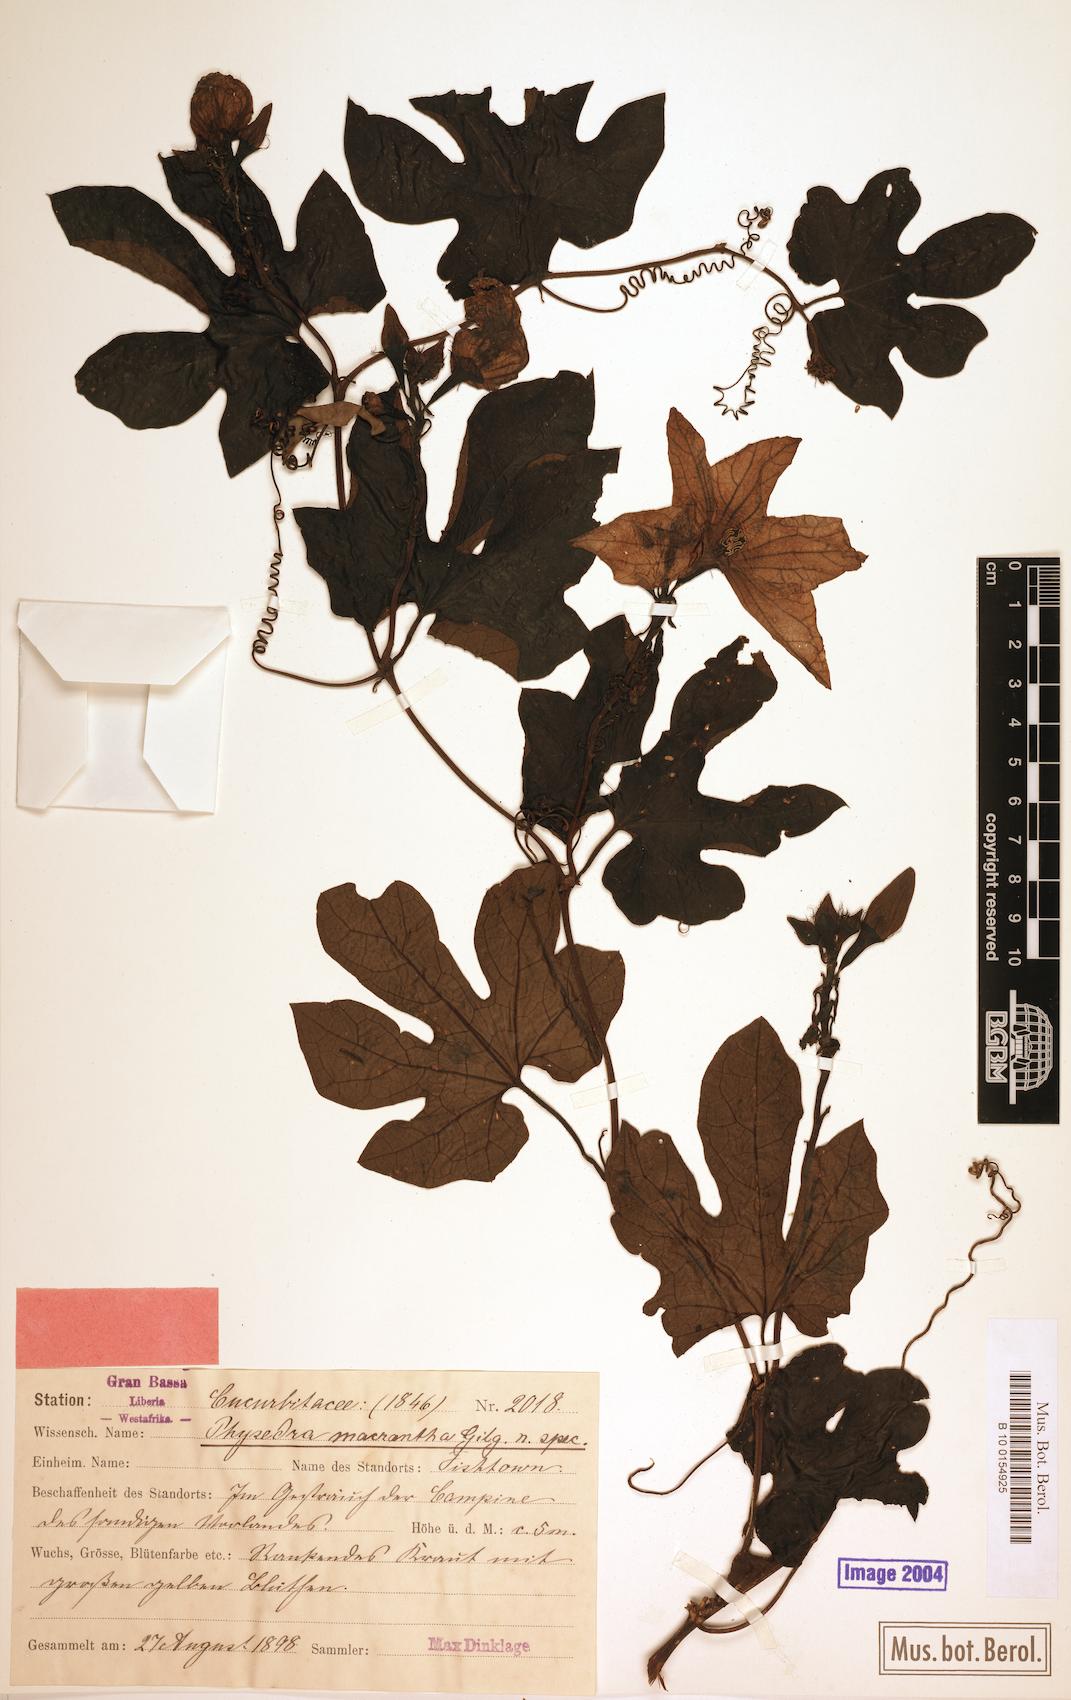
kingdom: Plantae
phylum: Tracheophyta
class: Magnoliopsida
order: Cucurbitales
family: Cucurbitaceae
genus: Ruthalicia
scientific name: Ruthalicia eglandulosa
